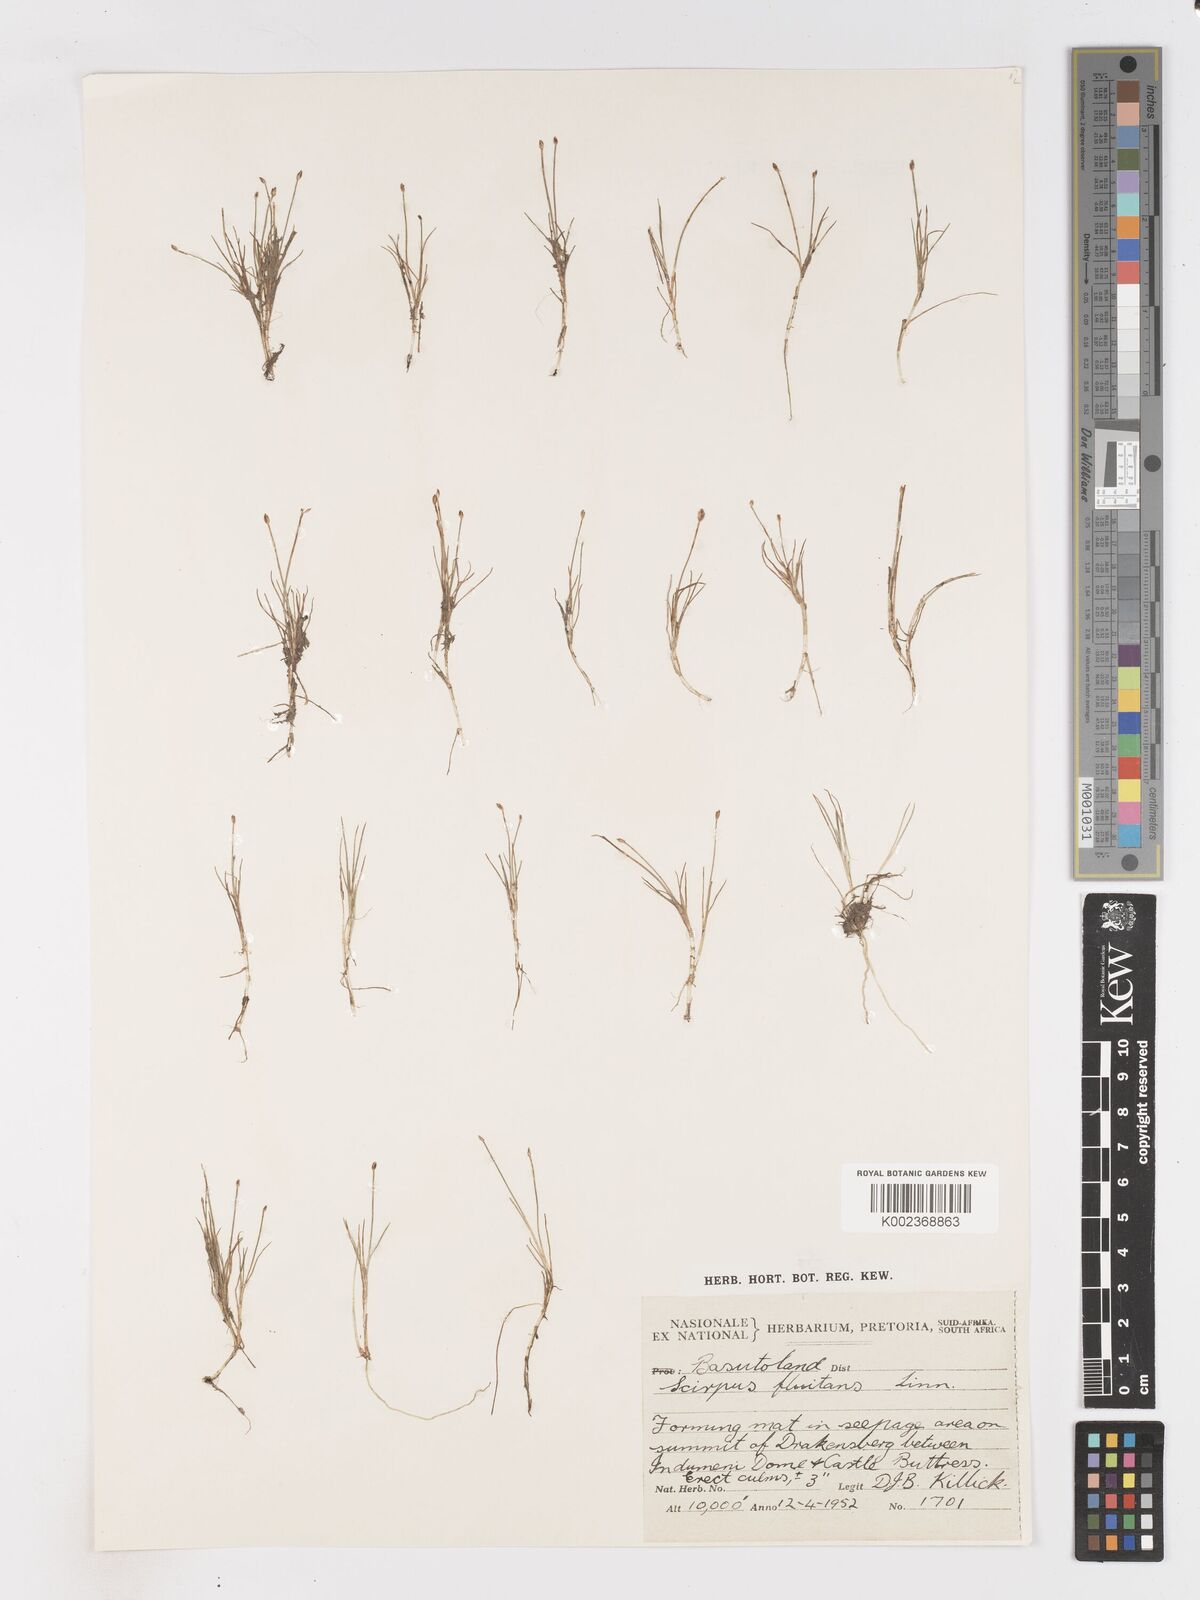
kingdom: Plantae
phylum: Tracheophyta
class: Liliopsida
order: Poales
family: Cyperaceae
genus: Isolepis
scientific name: Isolepis fluitans
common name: Floating club-rush
